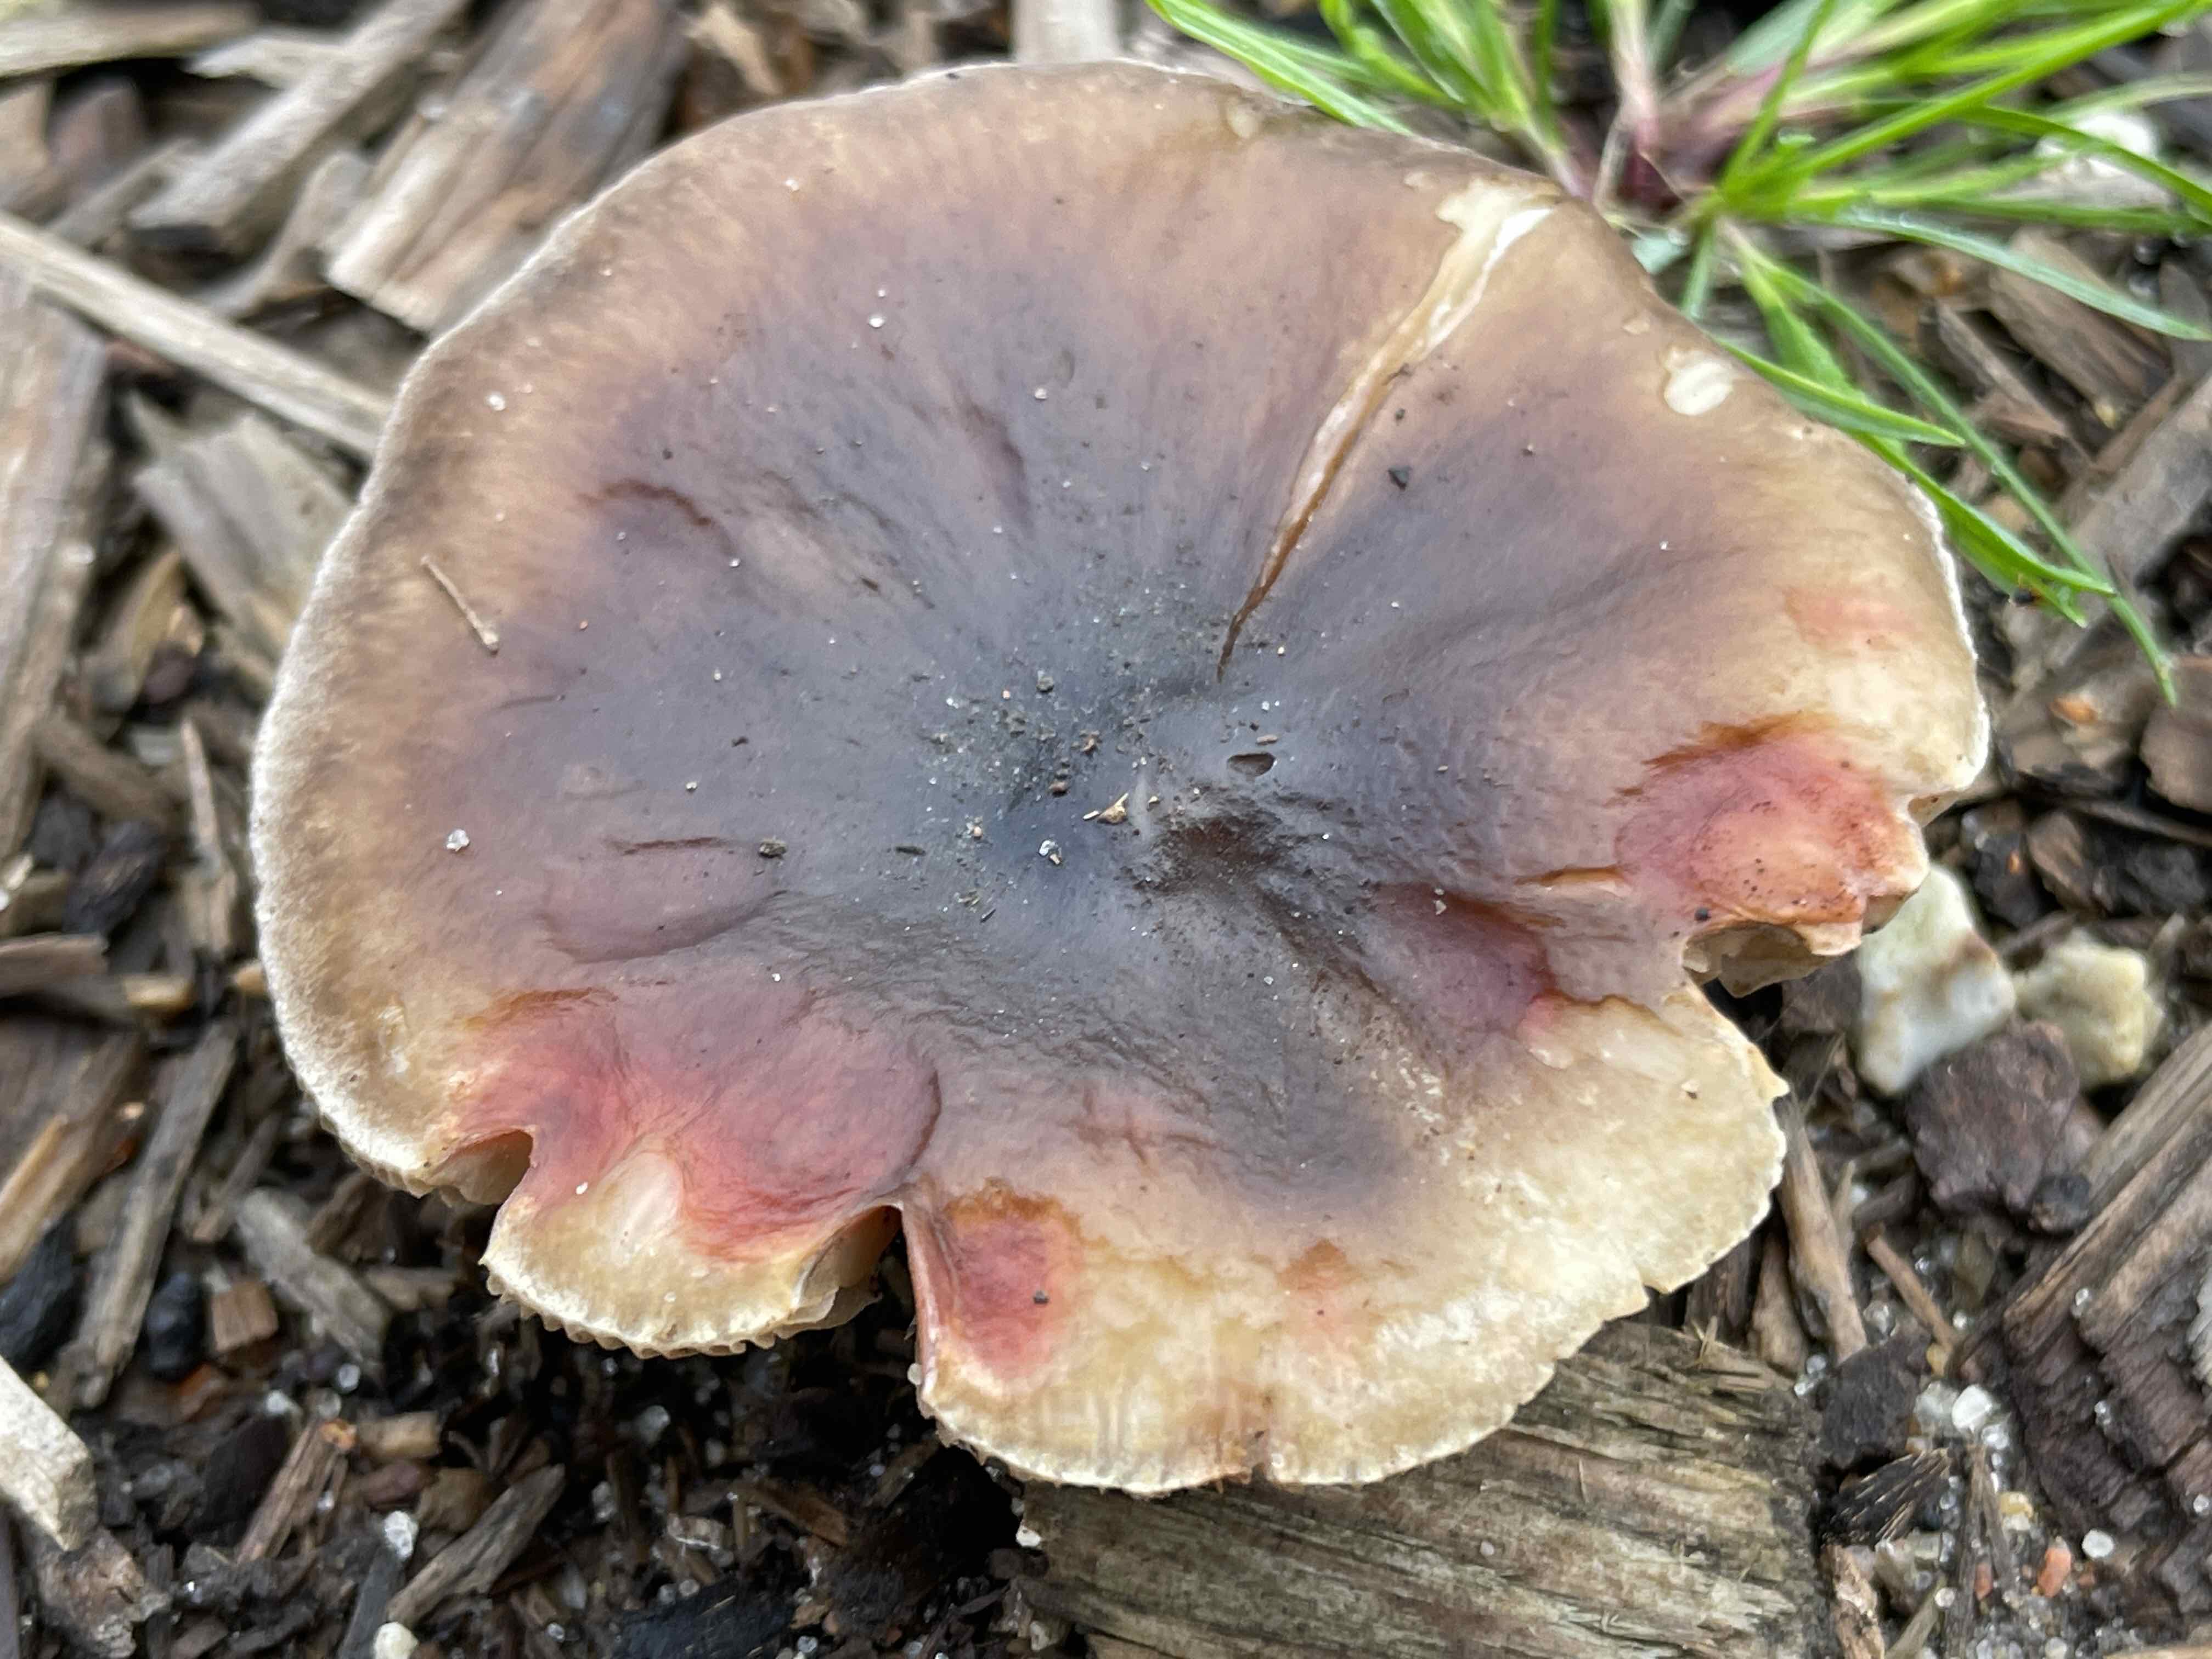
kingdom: Fungi
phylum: Basidiomycota
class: Agaricomycetes
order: Agaricales
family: Tricholomataceae
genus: Melanoleuca
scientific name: Melanoleuca
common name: munkehat
